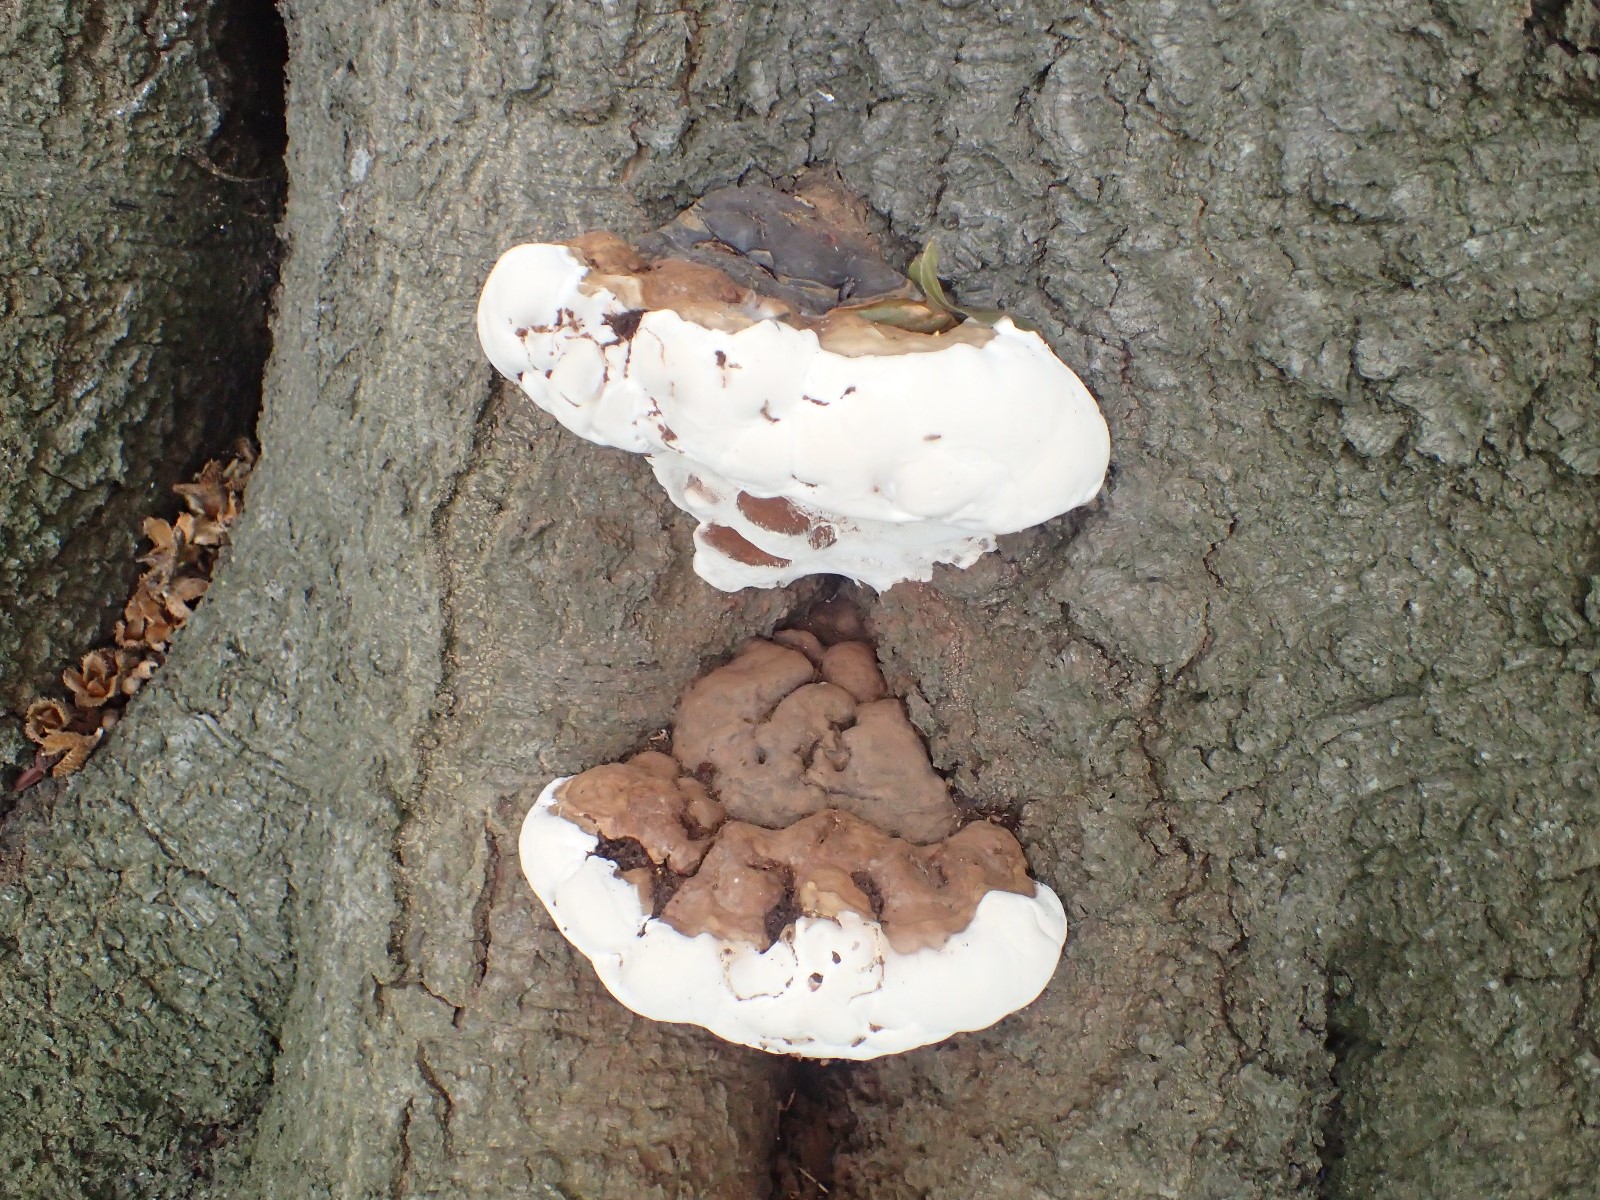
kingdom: Fungi
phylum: Basidiomycota
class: Agaricomycetes
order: Polyporales
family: Polyporaceae
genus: Ganoderma
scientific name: Ganoderma pfeifferi
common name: kobberrød lakporesvamp
